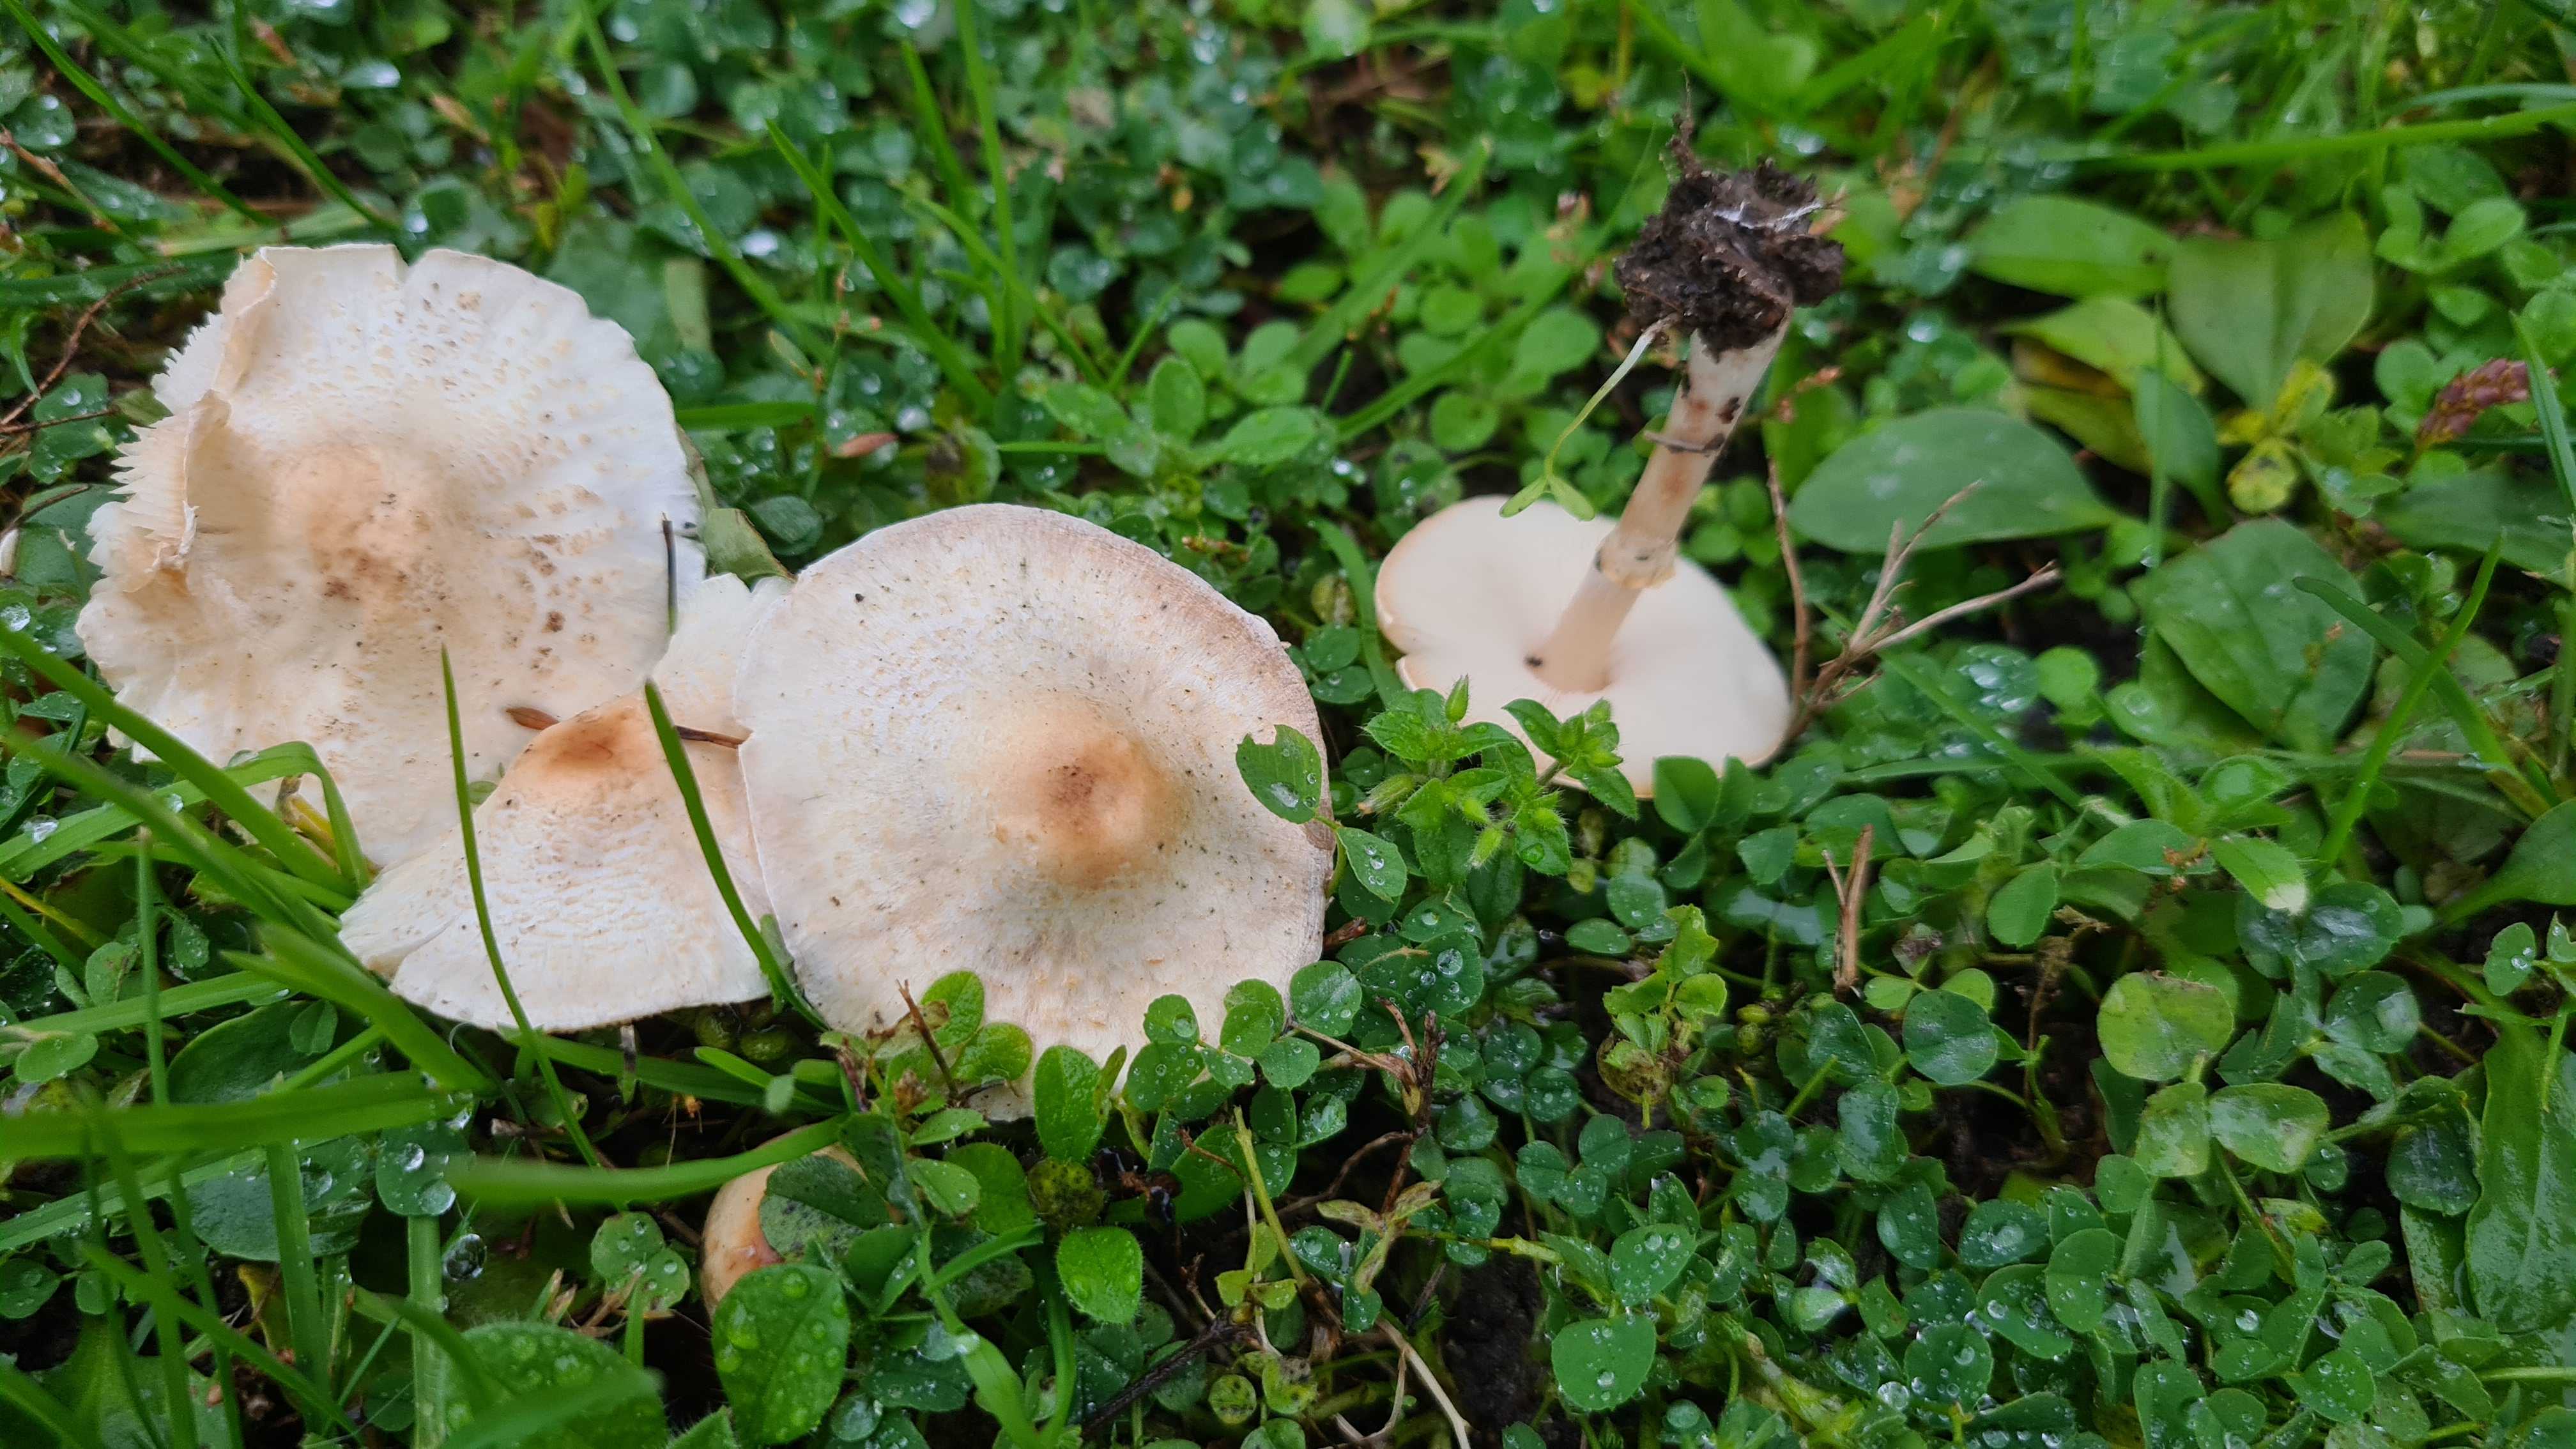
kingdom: Fungi
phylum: Basidiomycota
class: Agaricomycetes
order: Agaricales
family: Agaricaceae
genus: Lepiota
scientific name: Lepiota cristata
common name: stinkende parasolhat
